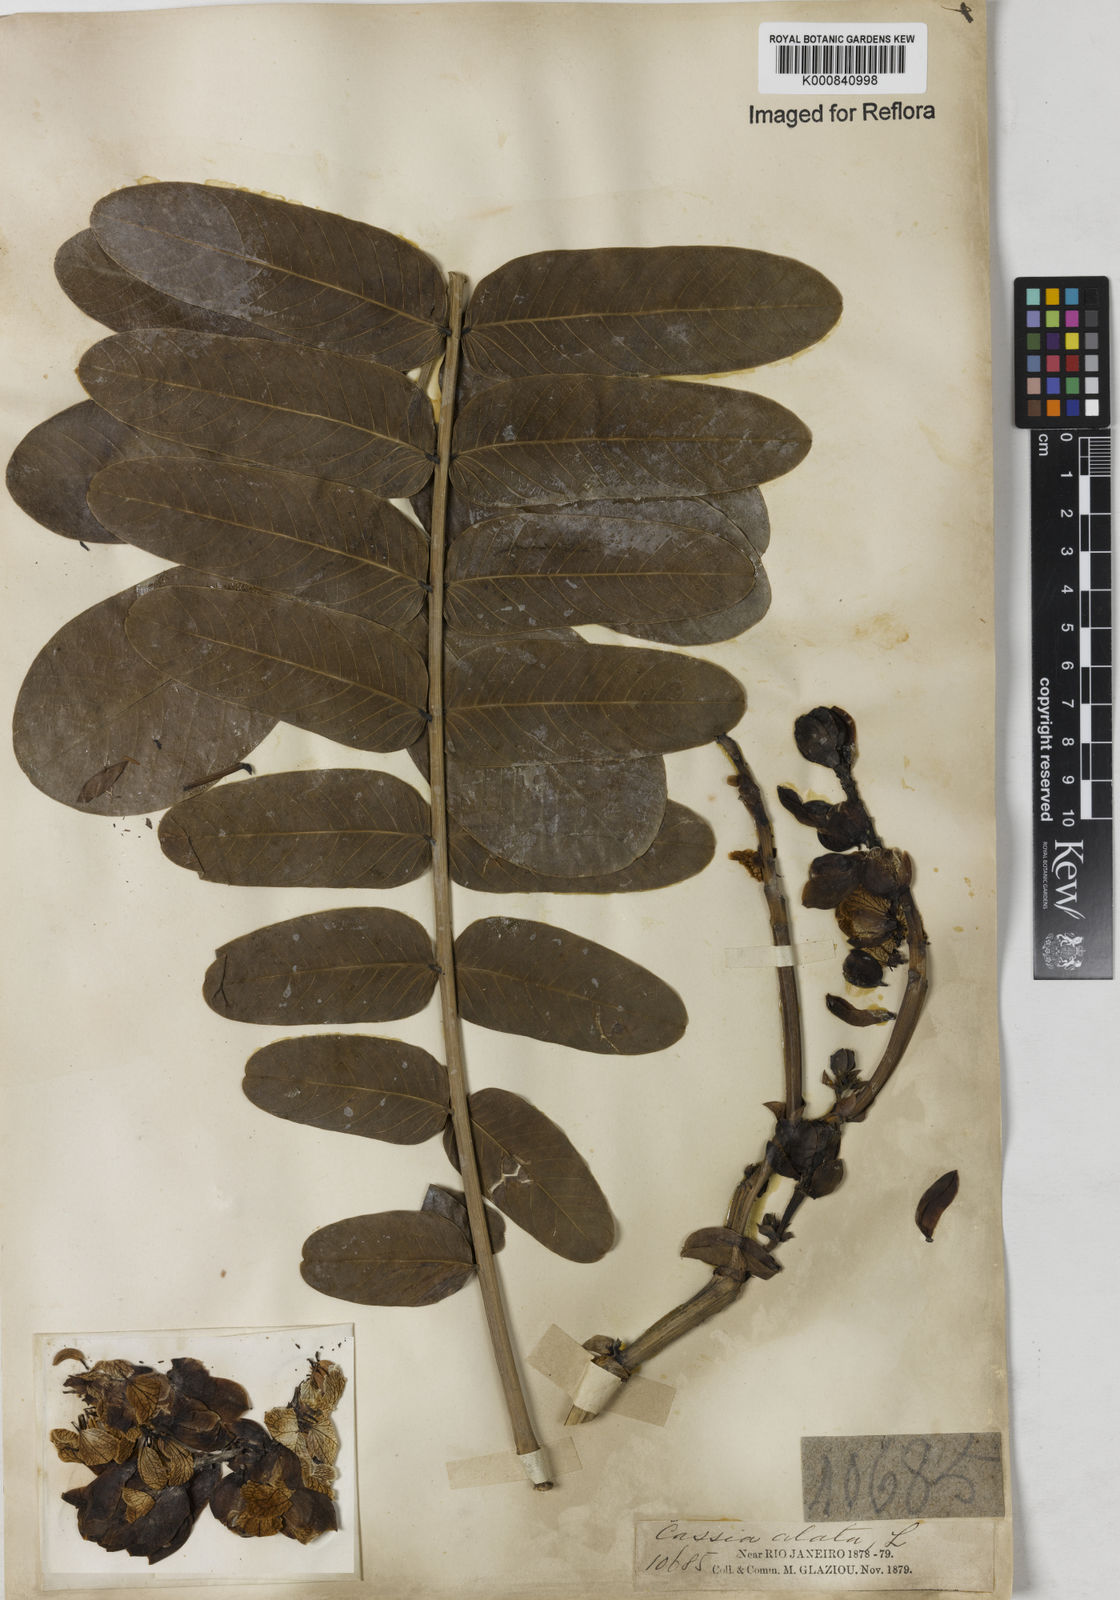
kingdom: Plantae
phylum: Tracheophyta
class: Magnoliopsida
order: Fabales
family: Fabaceae
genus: Senna
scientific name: Senna alata
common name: Emperor's candlesticks
